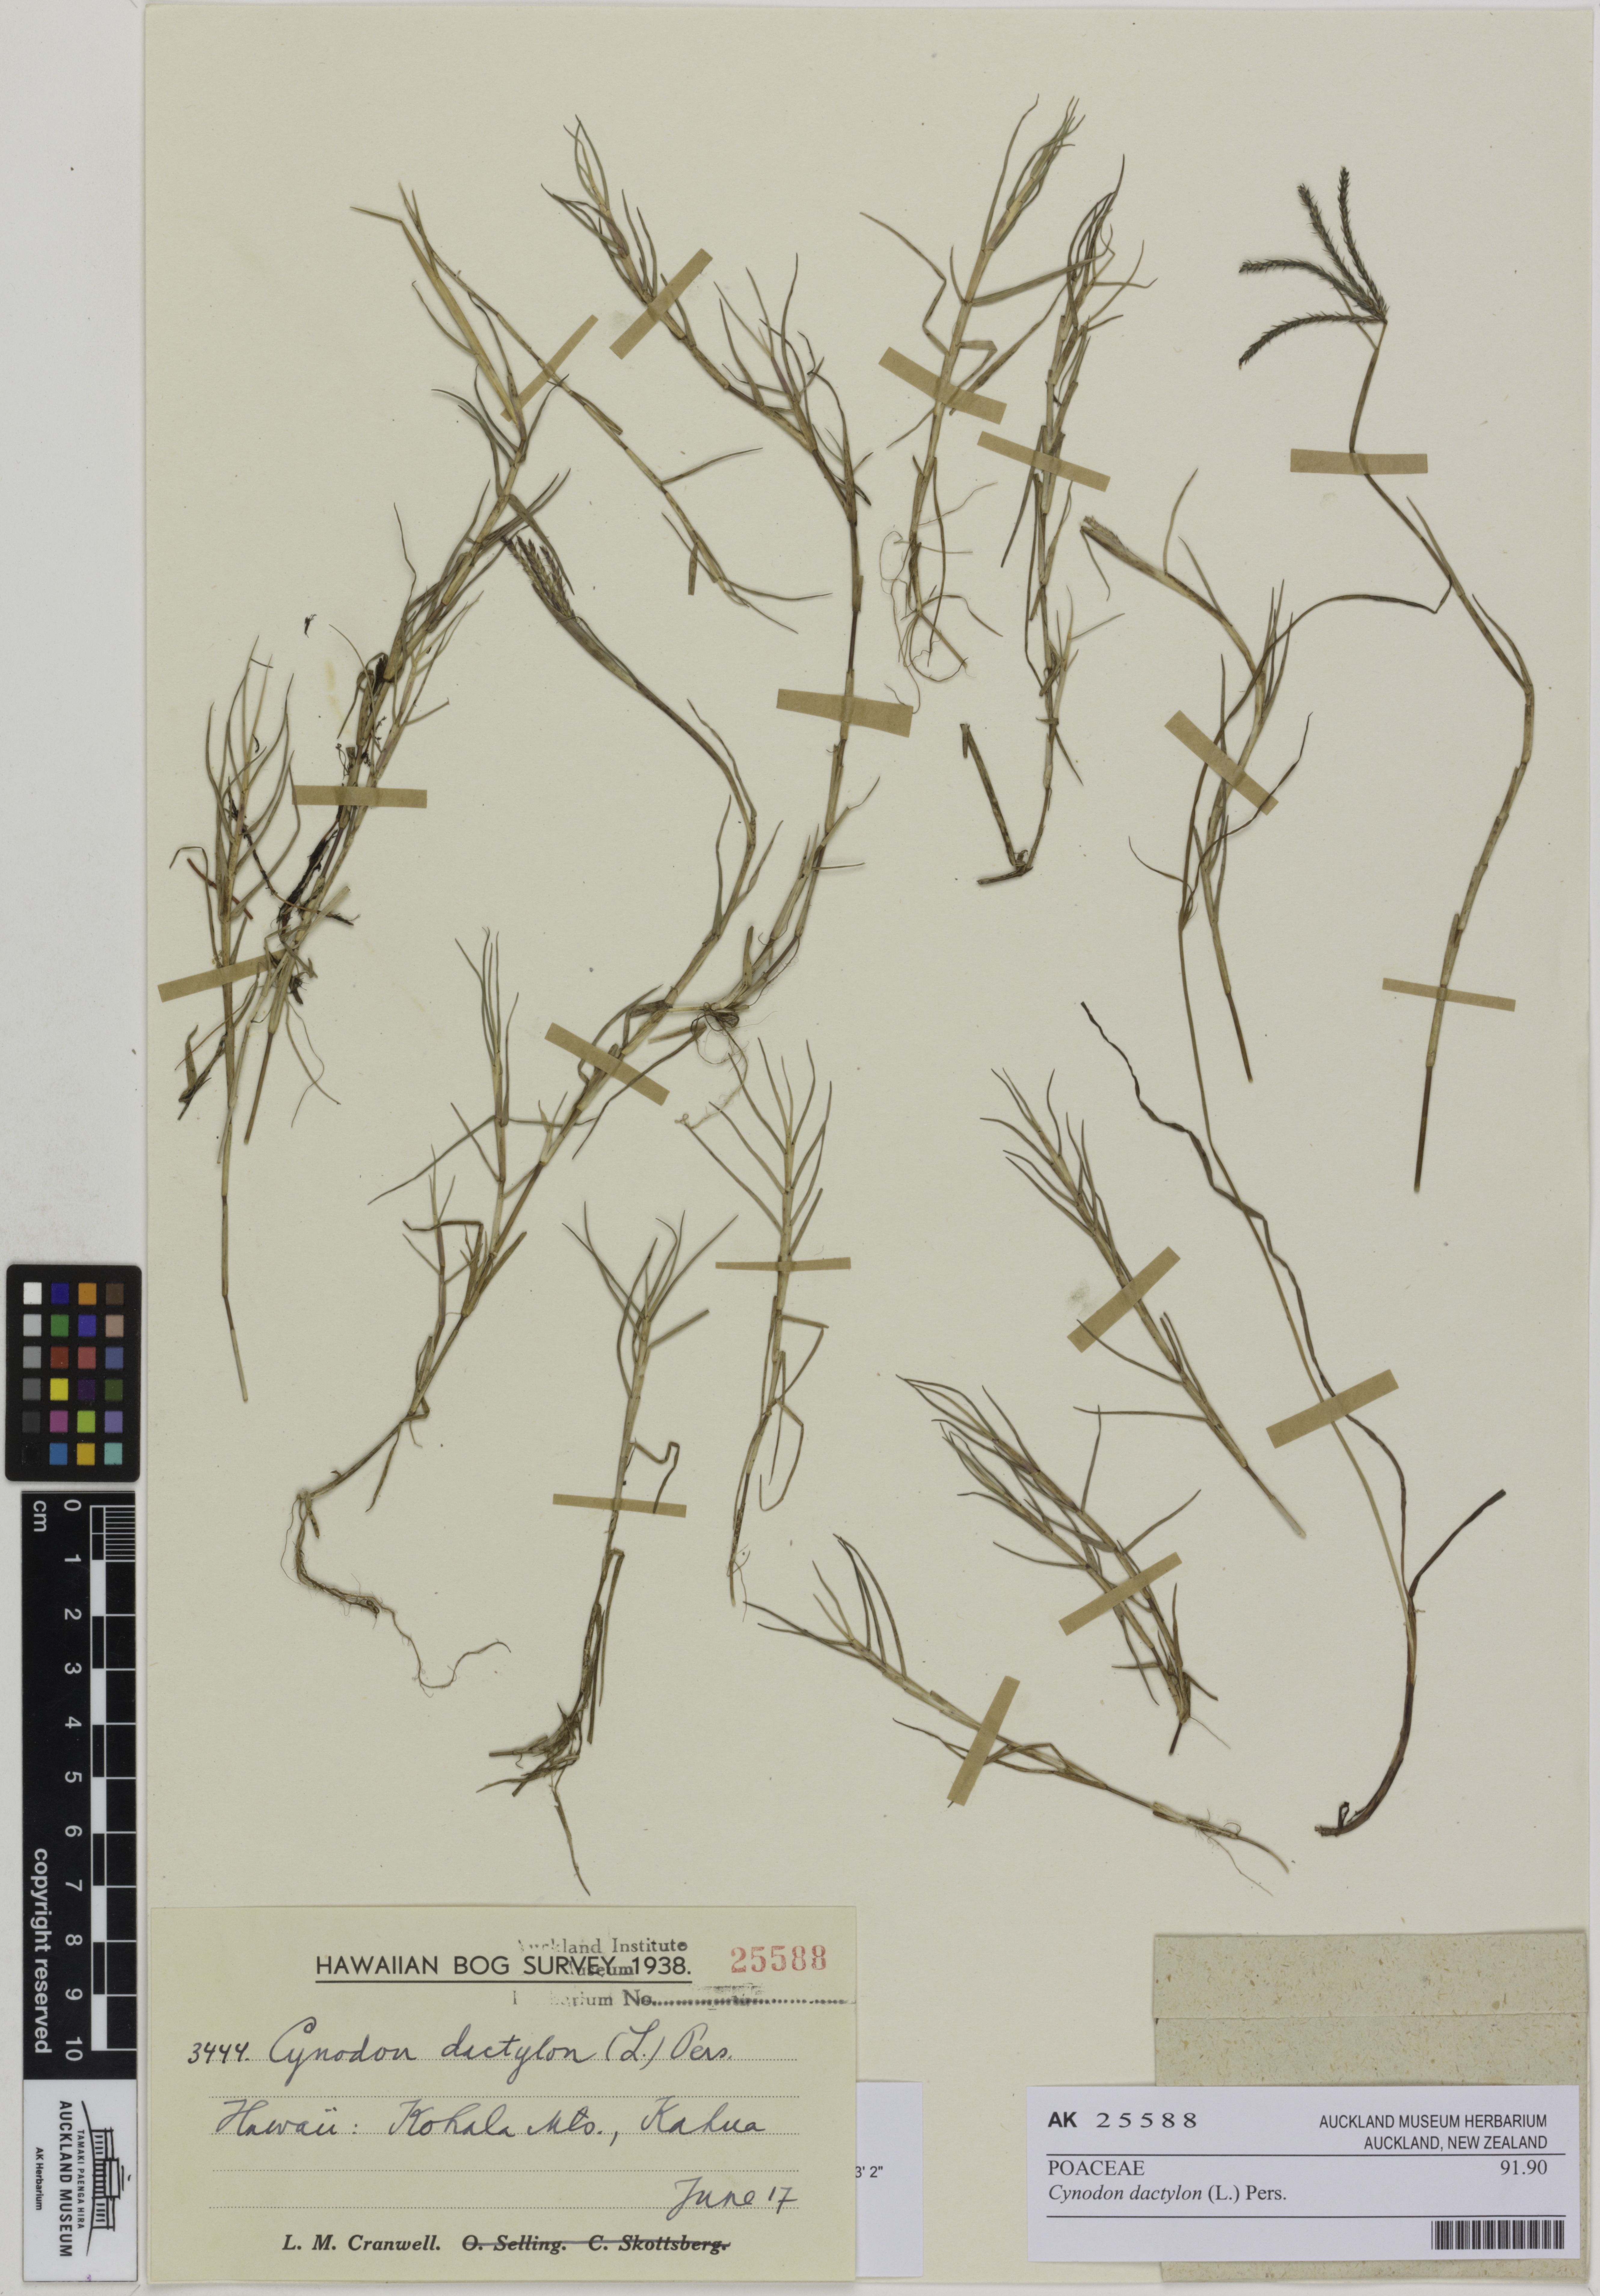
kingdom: Plantae
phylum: Tracheophyta
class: Liliopsida
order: Poales
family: Poaceae
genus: Cynodon
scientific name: Cynodon dactylon
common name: Bermuda grass
